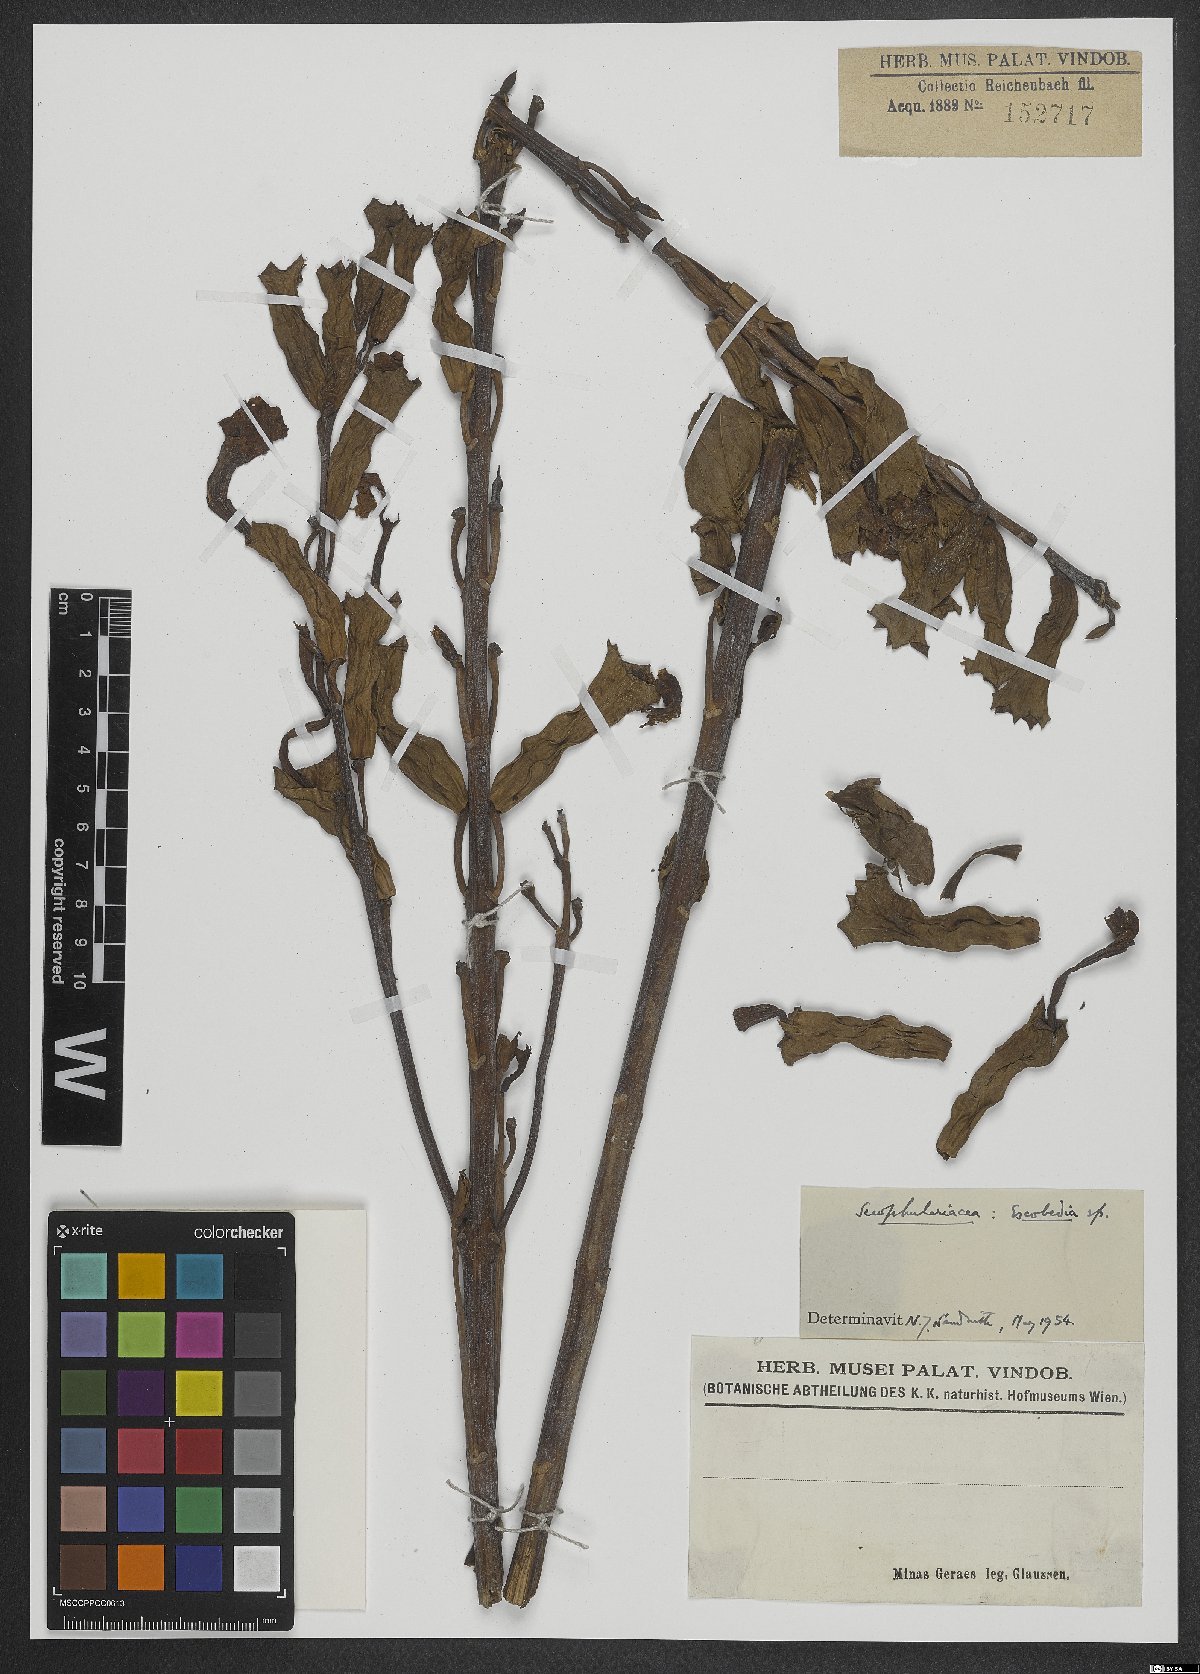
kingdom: Plantae
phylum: Tracheophyta
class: Magnoliopsida
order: Lamiales
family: Orobanchaceae
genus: Escobedia
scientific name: Escobedia
